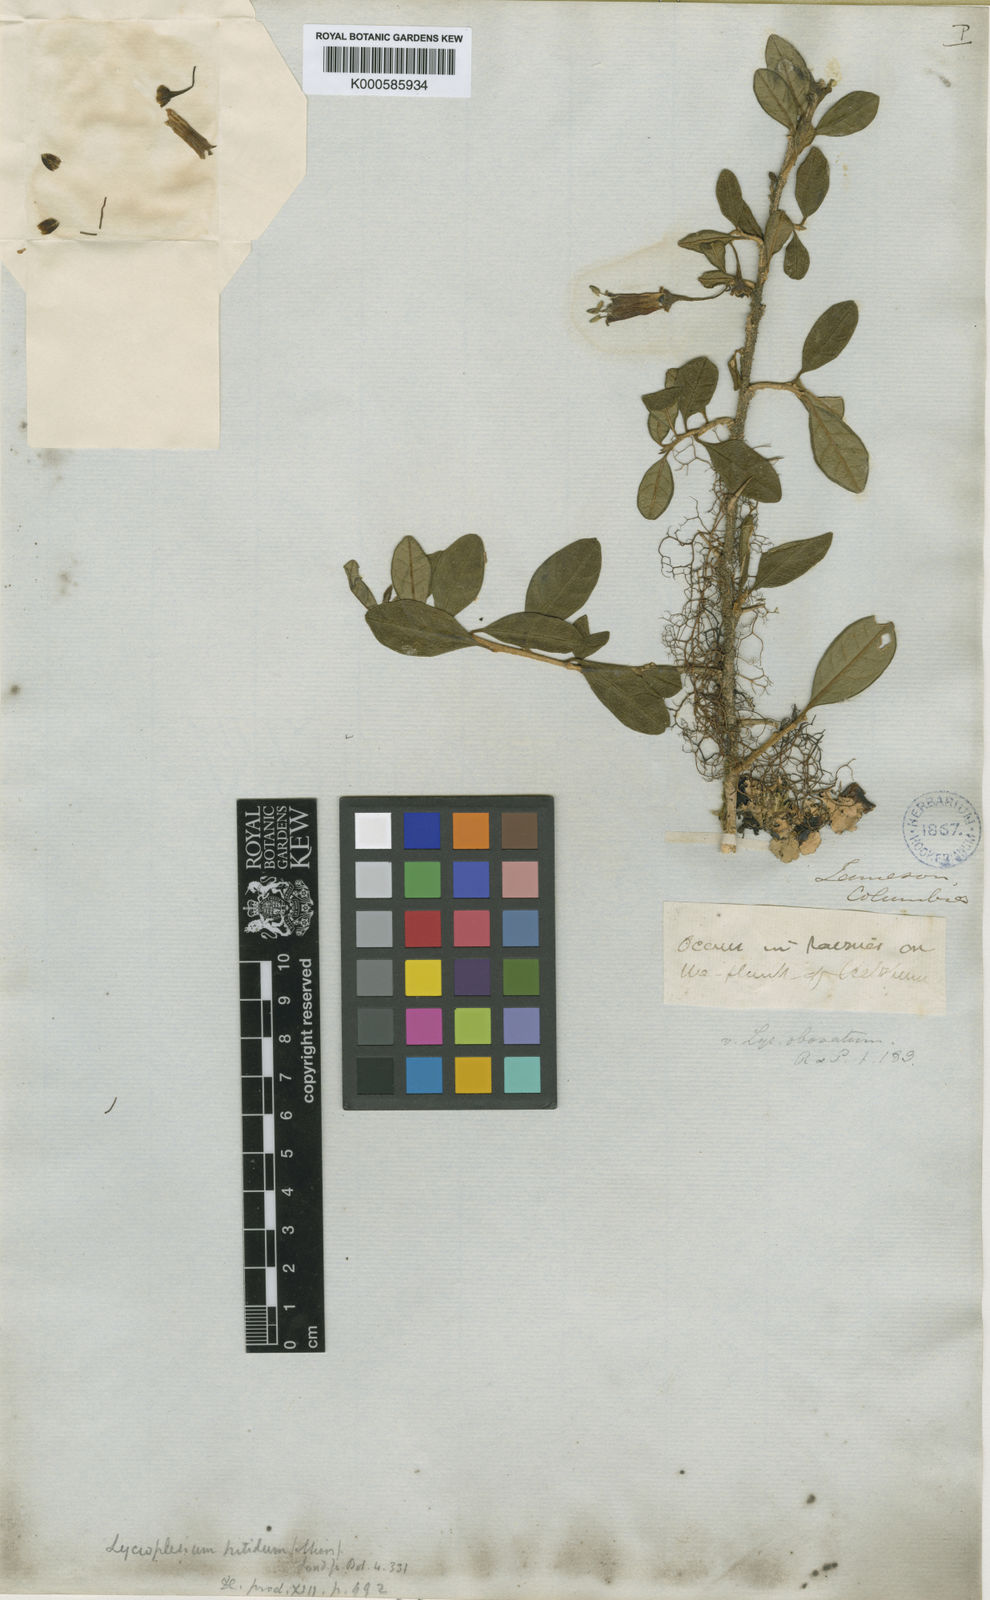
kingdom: Plantae
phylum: Tracheophyta
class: Magnoliopsida
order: Solanales
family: Solanaceae
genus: Iochroma
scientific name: Iochroma Acnistus spec
